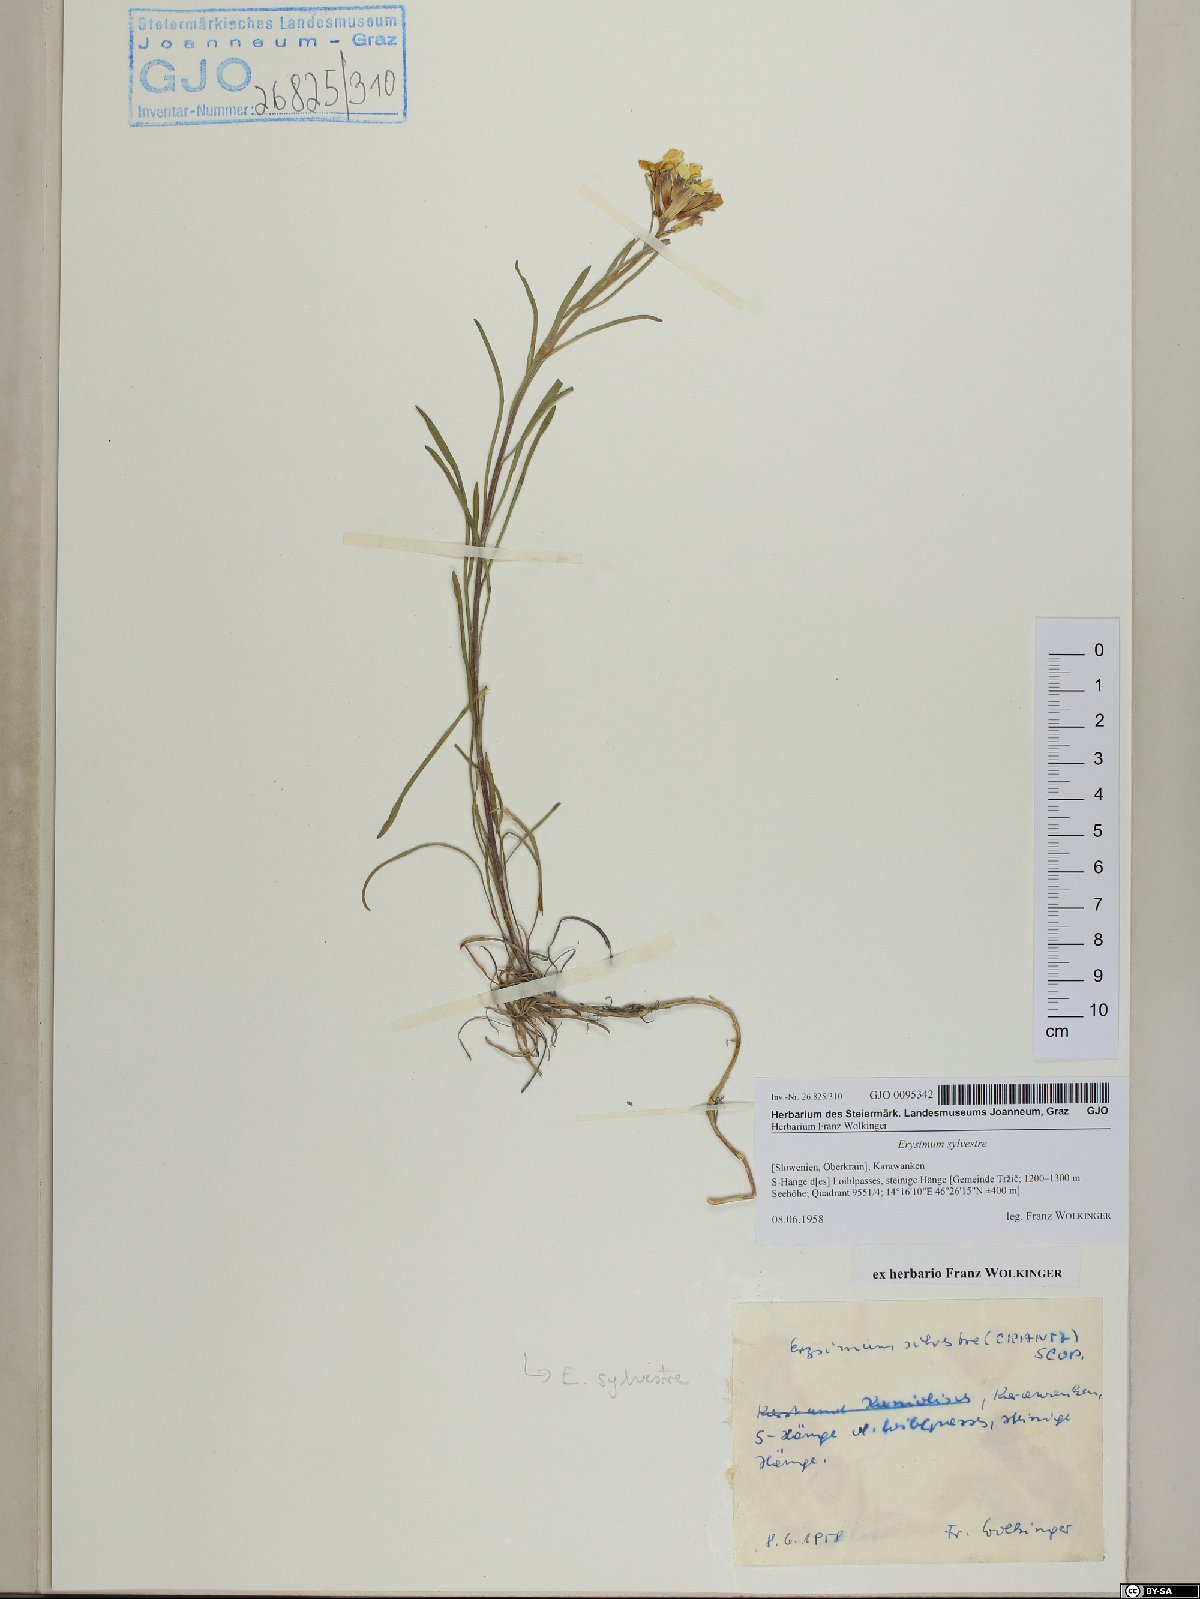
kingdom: Plantae
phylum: Tracheophyta
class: Magnoliopsida
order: Brassicales
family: Brassicaceae
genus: Erysimum
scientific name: Erysimum sylvestre
